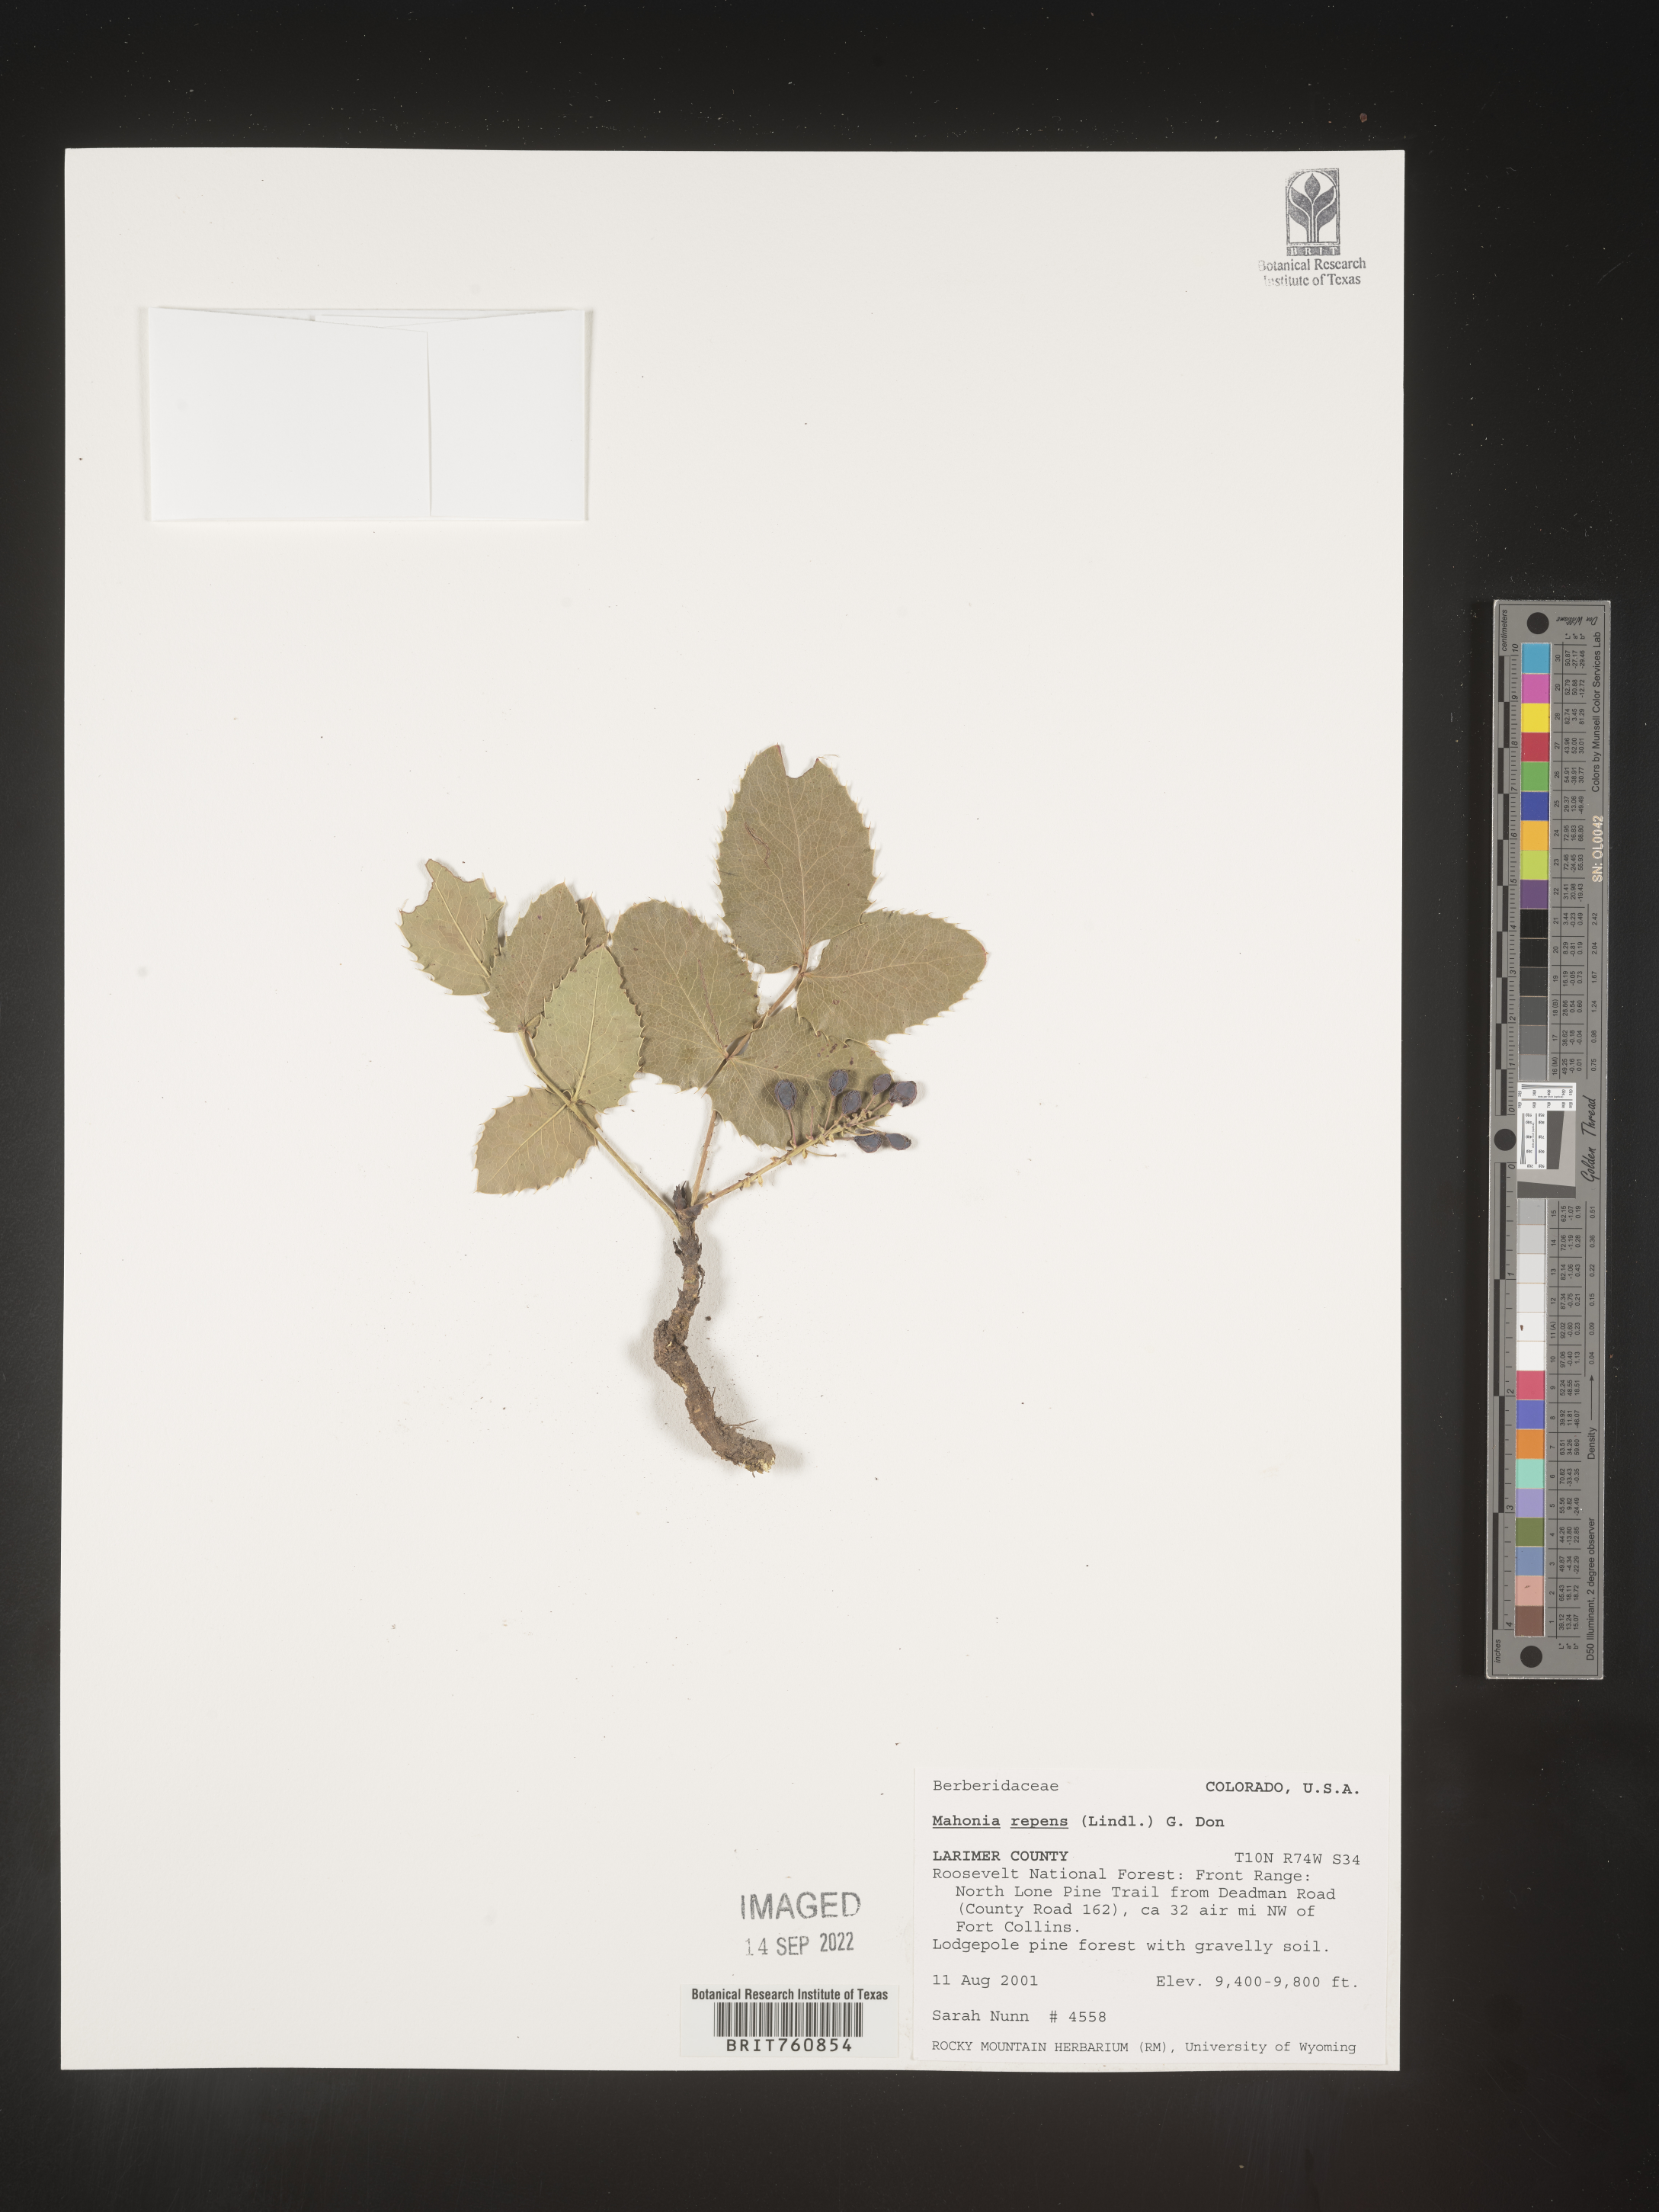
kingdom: Plantae
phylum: Tracheophyta
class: Magnoliopsida
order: Ranunculales
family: Berberidaceae
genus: Mahonia
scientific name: Mahonia repens
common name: Creeping oregon-grape
